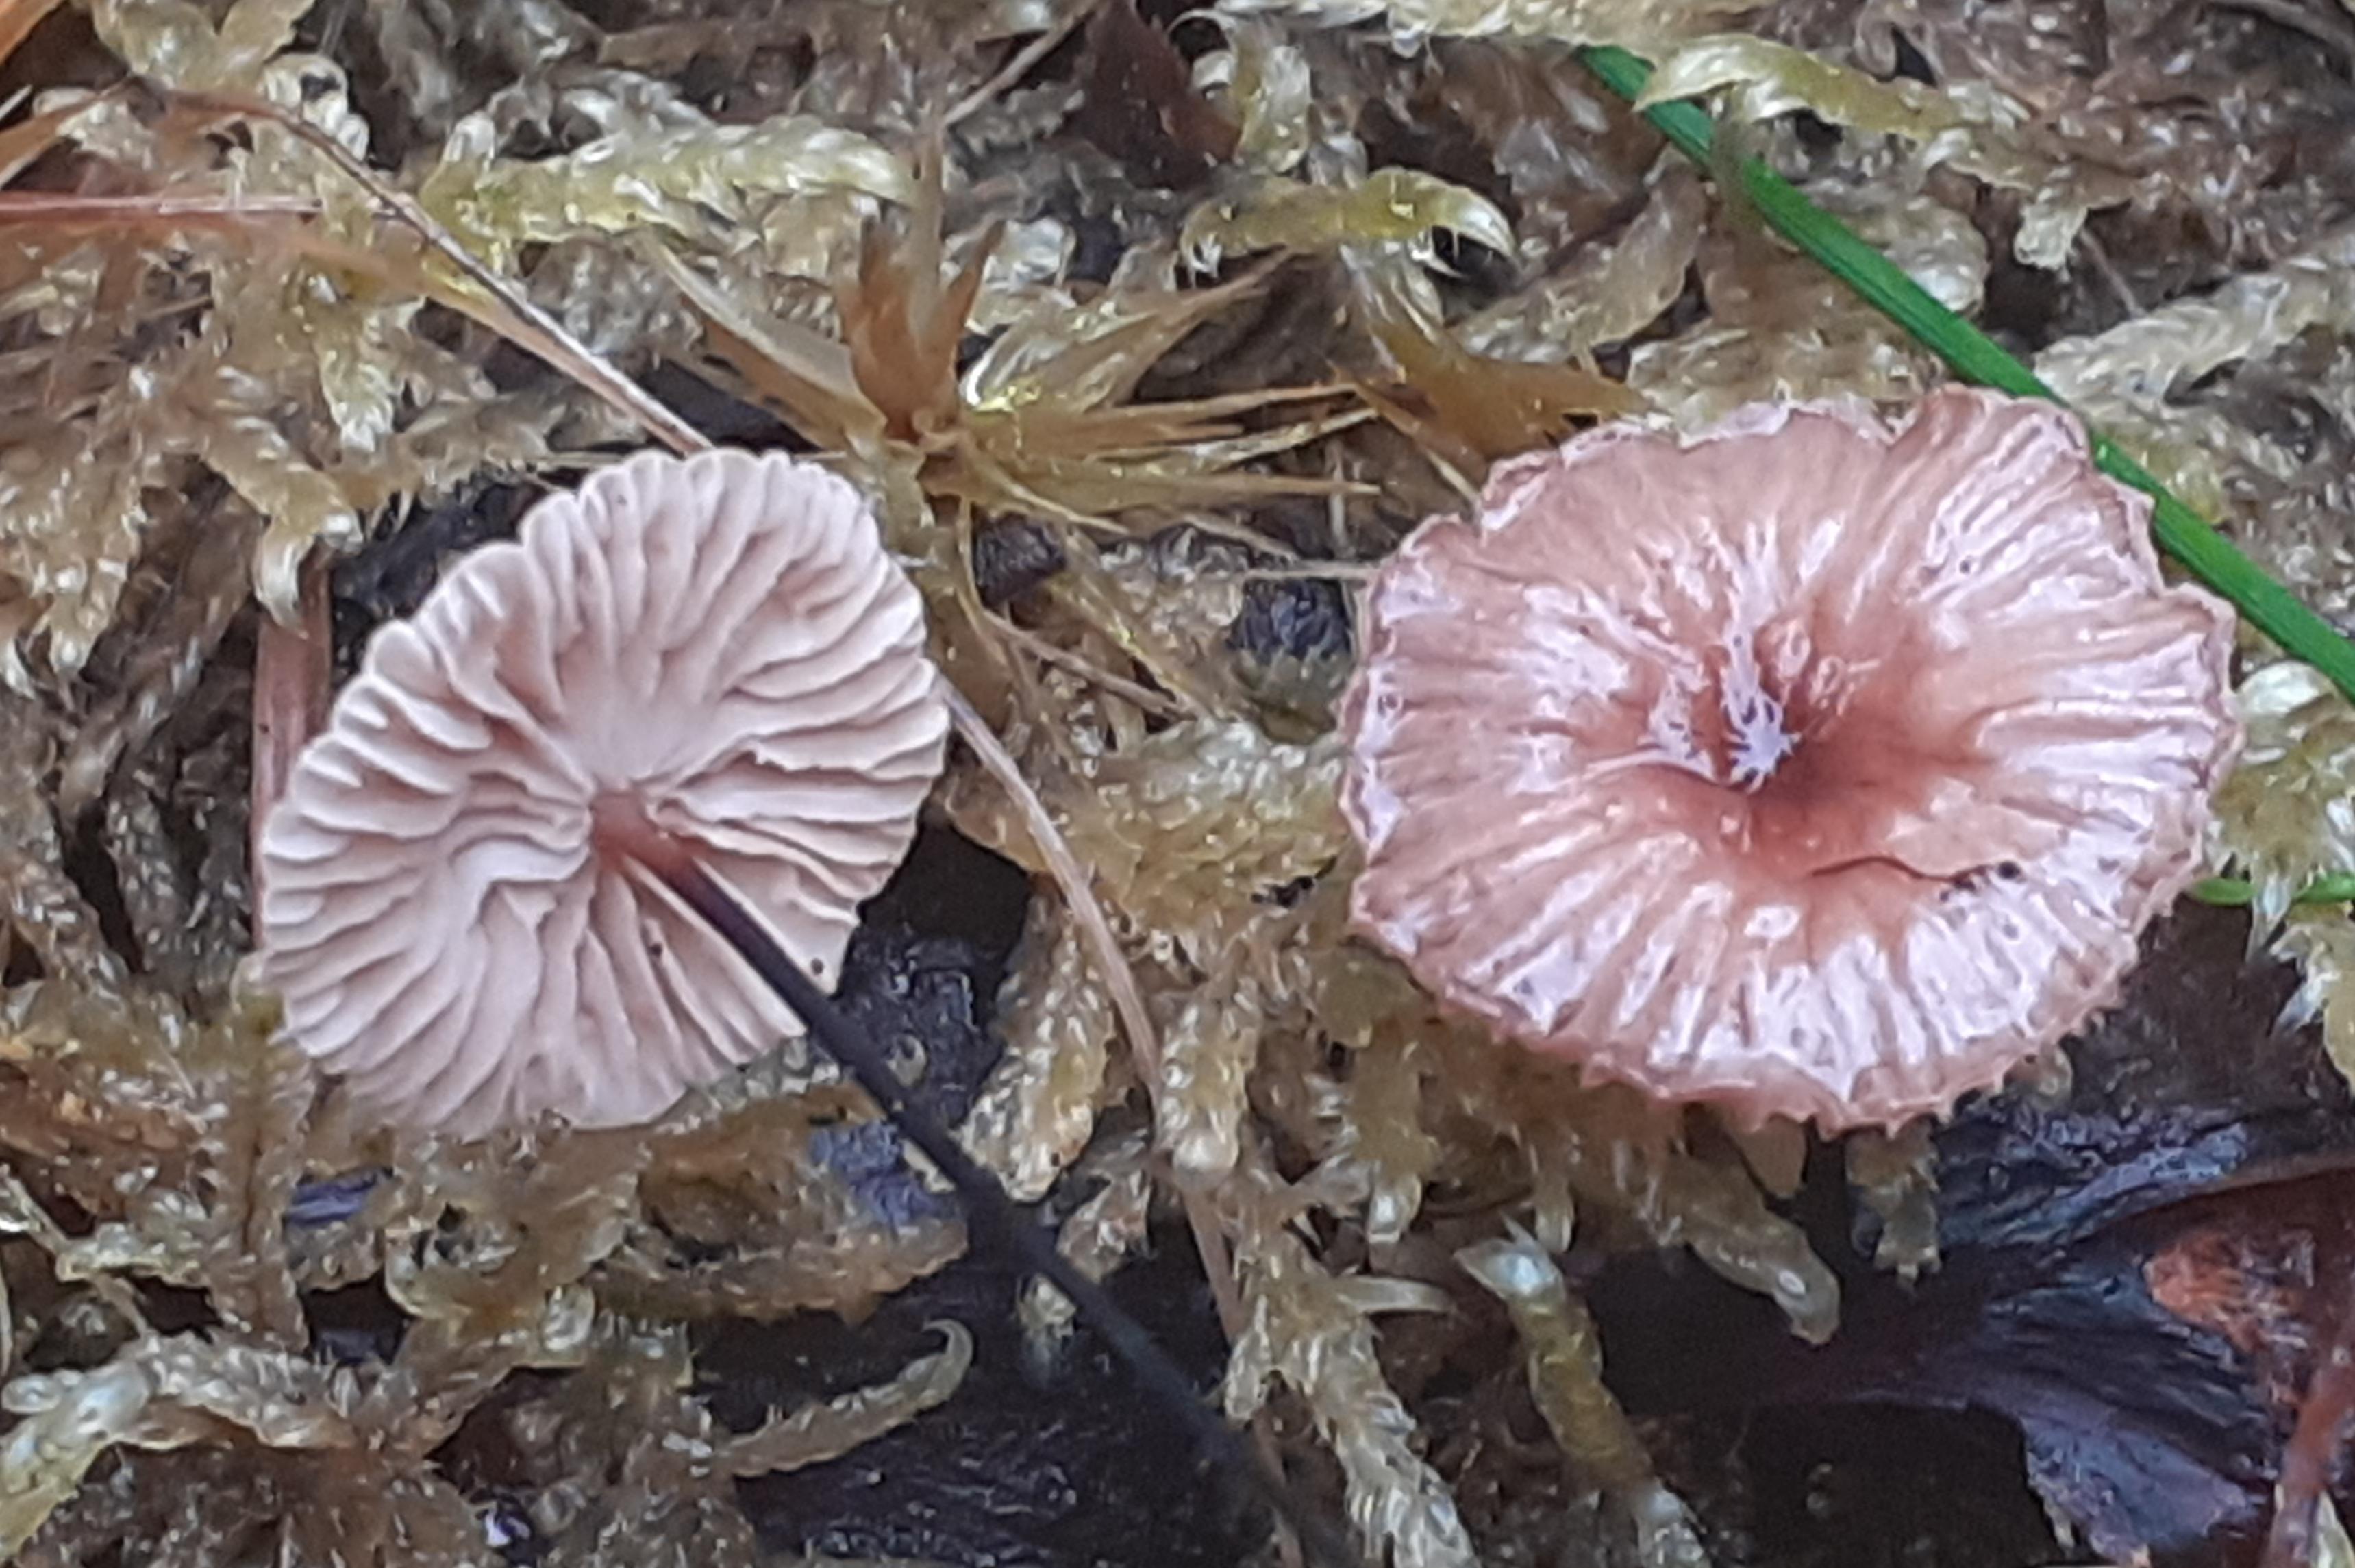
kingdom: Fungi
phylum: Basidiomycota
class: Agaricomycetes
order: Agaricales
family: Omphalotaceae
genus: Gymnopus
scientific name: Gymnopus androsaceus
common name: trådstokket fladhat
